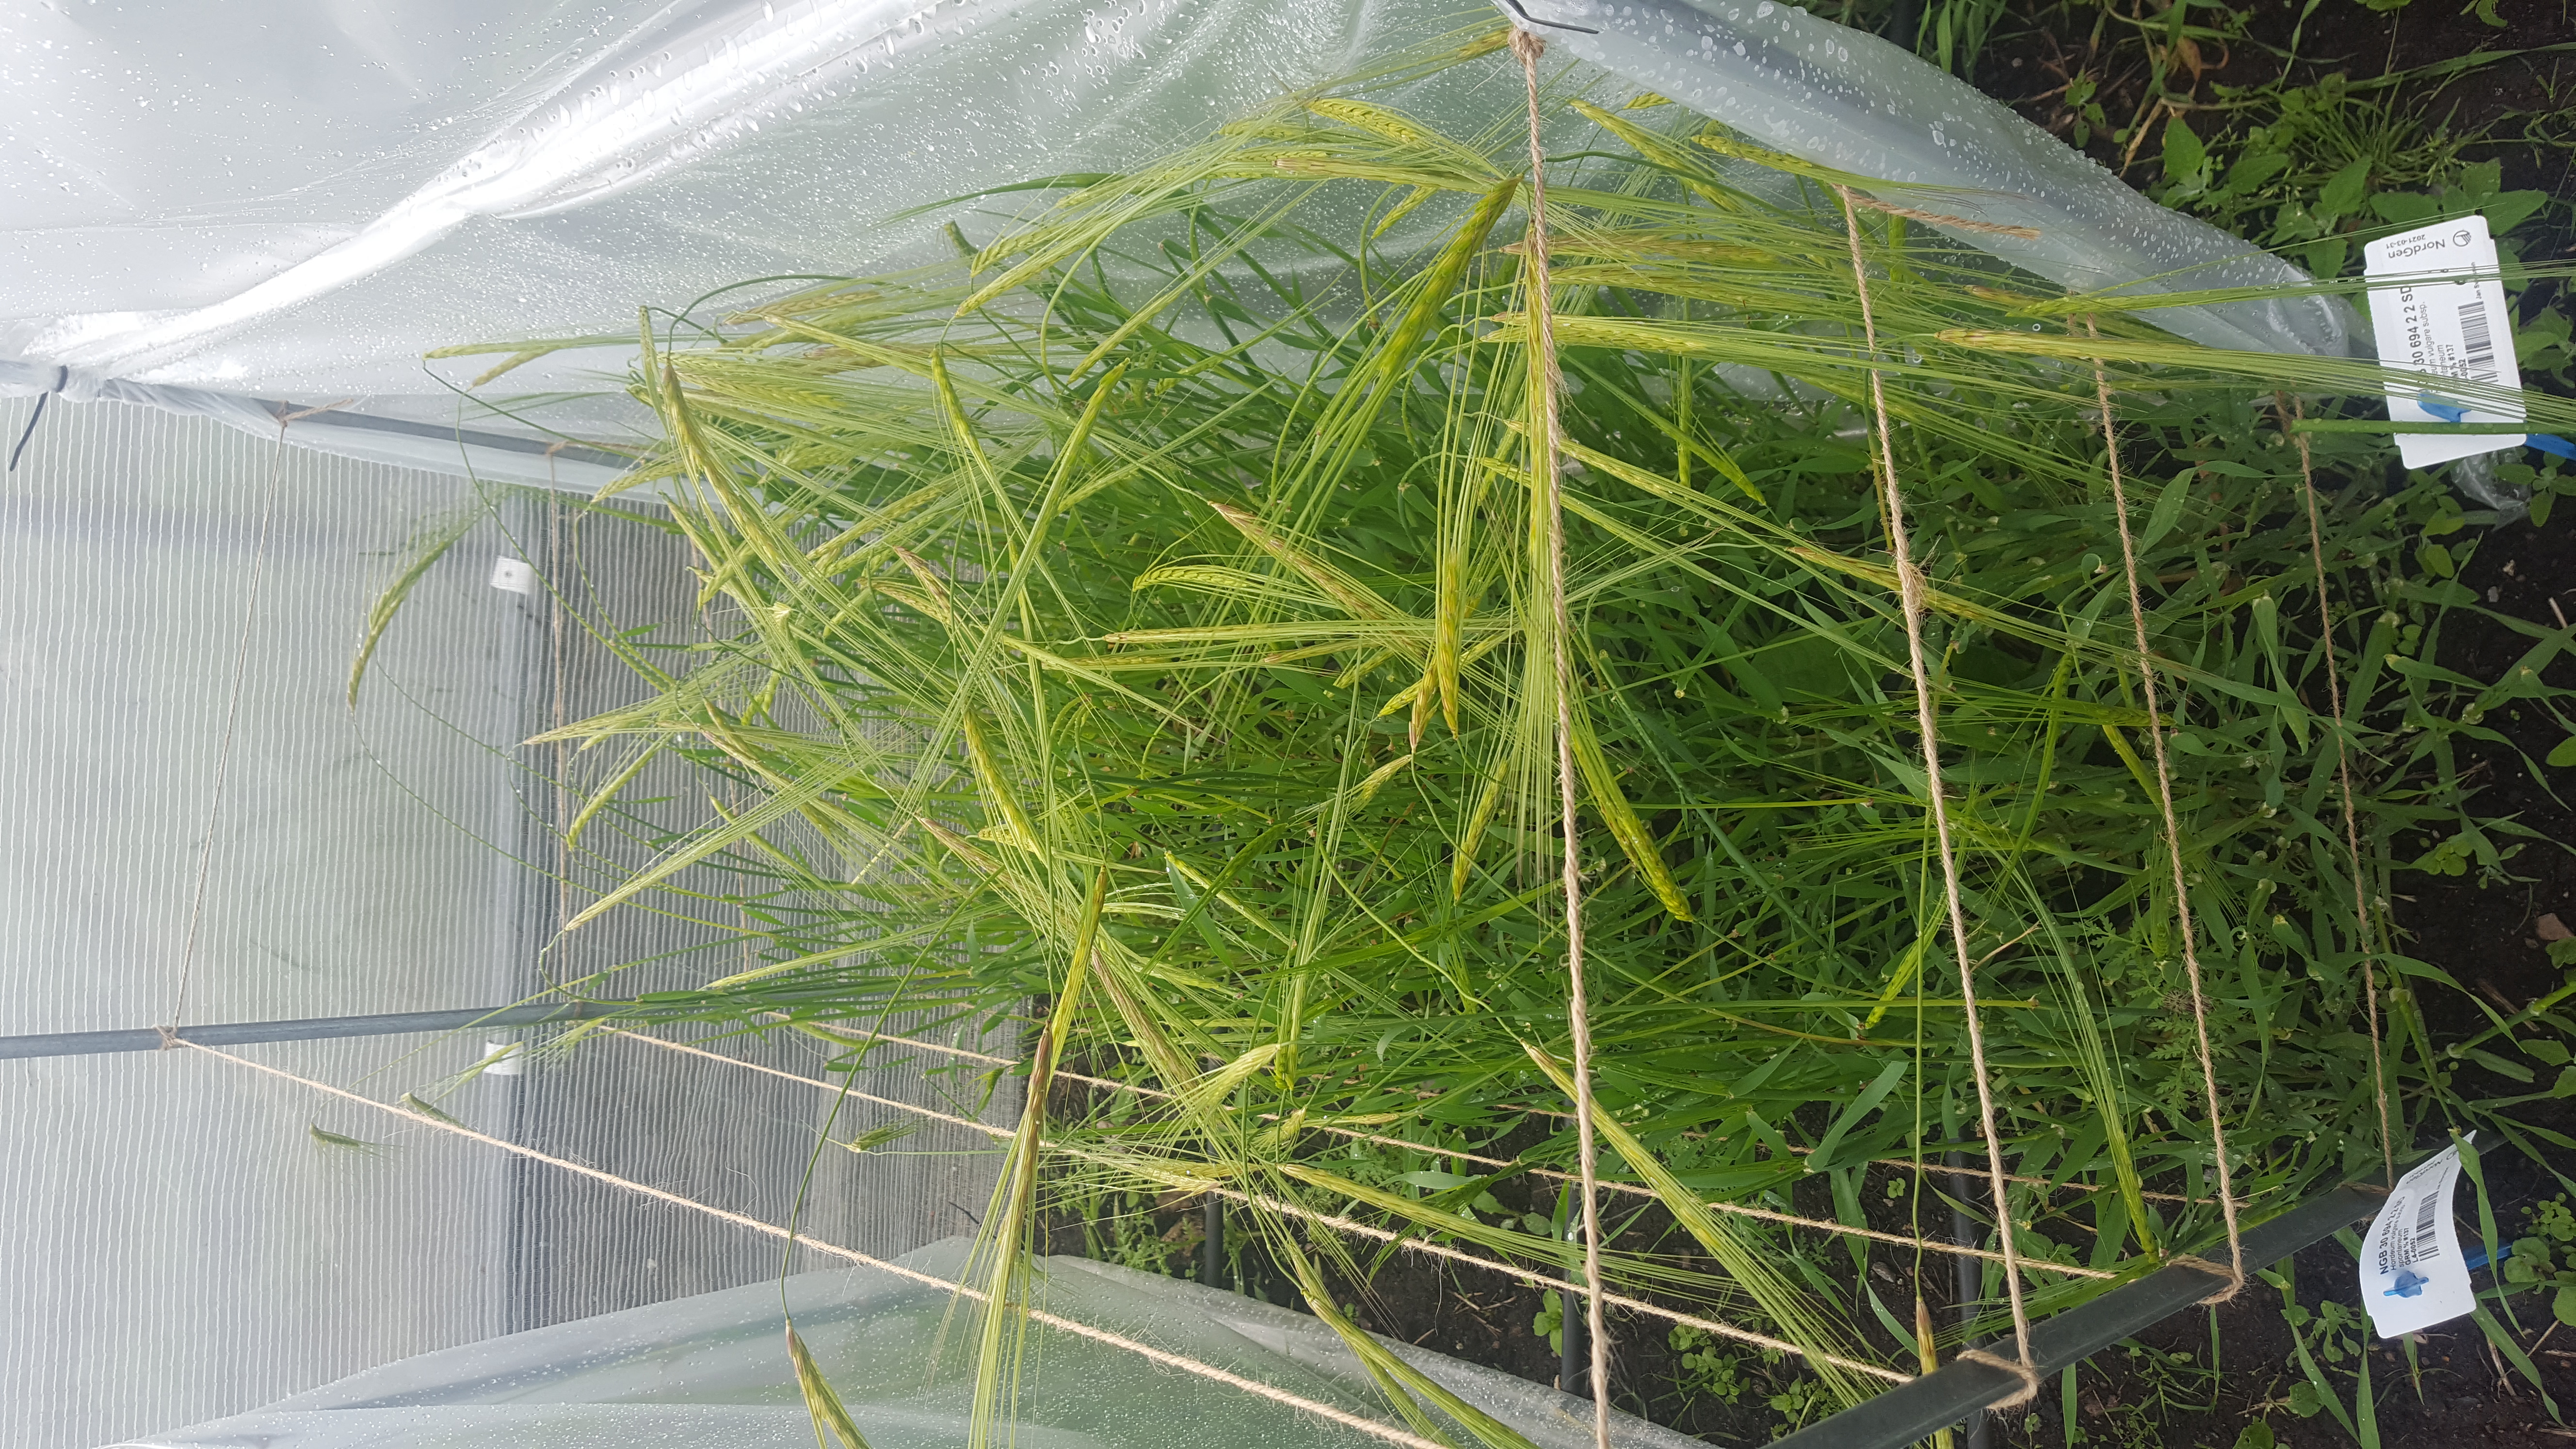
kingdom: Plantae
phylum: Tracheophyta
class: Liliopsida
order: Poales
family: Poaceae
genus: Hordeum
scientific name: Hordeum spontaneum
